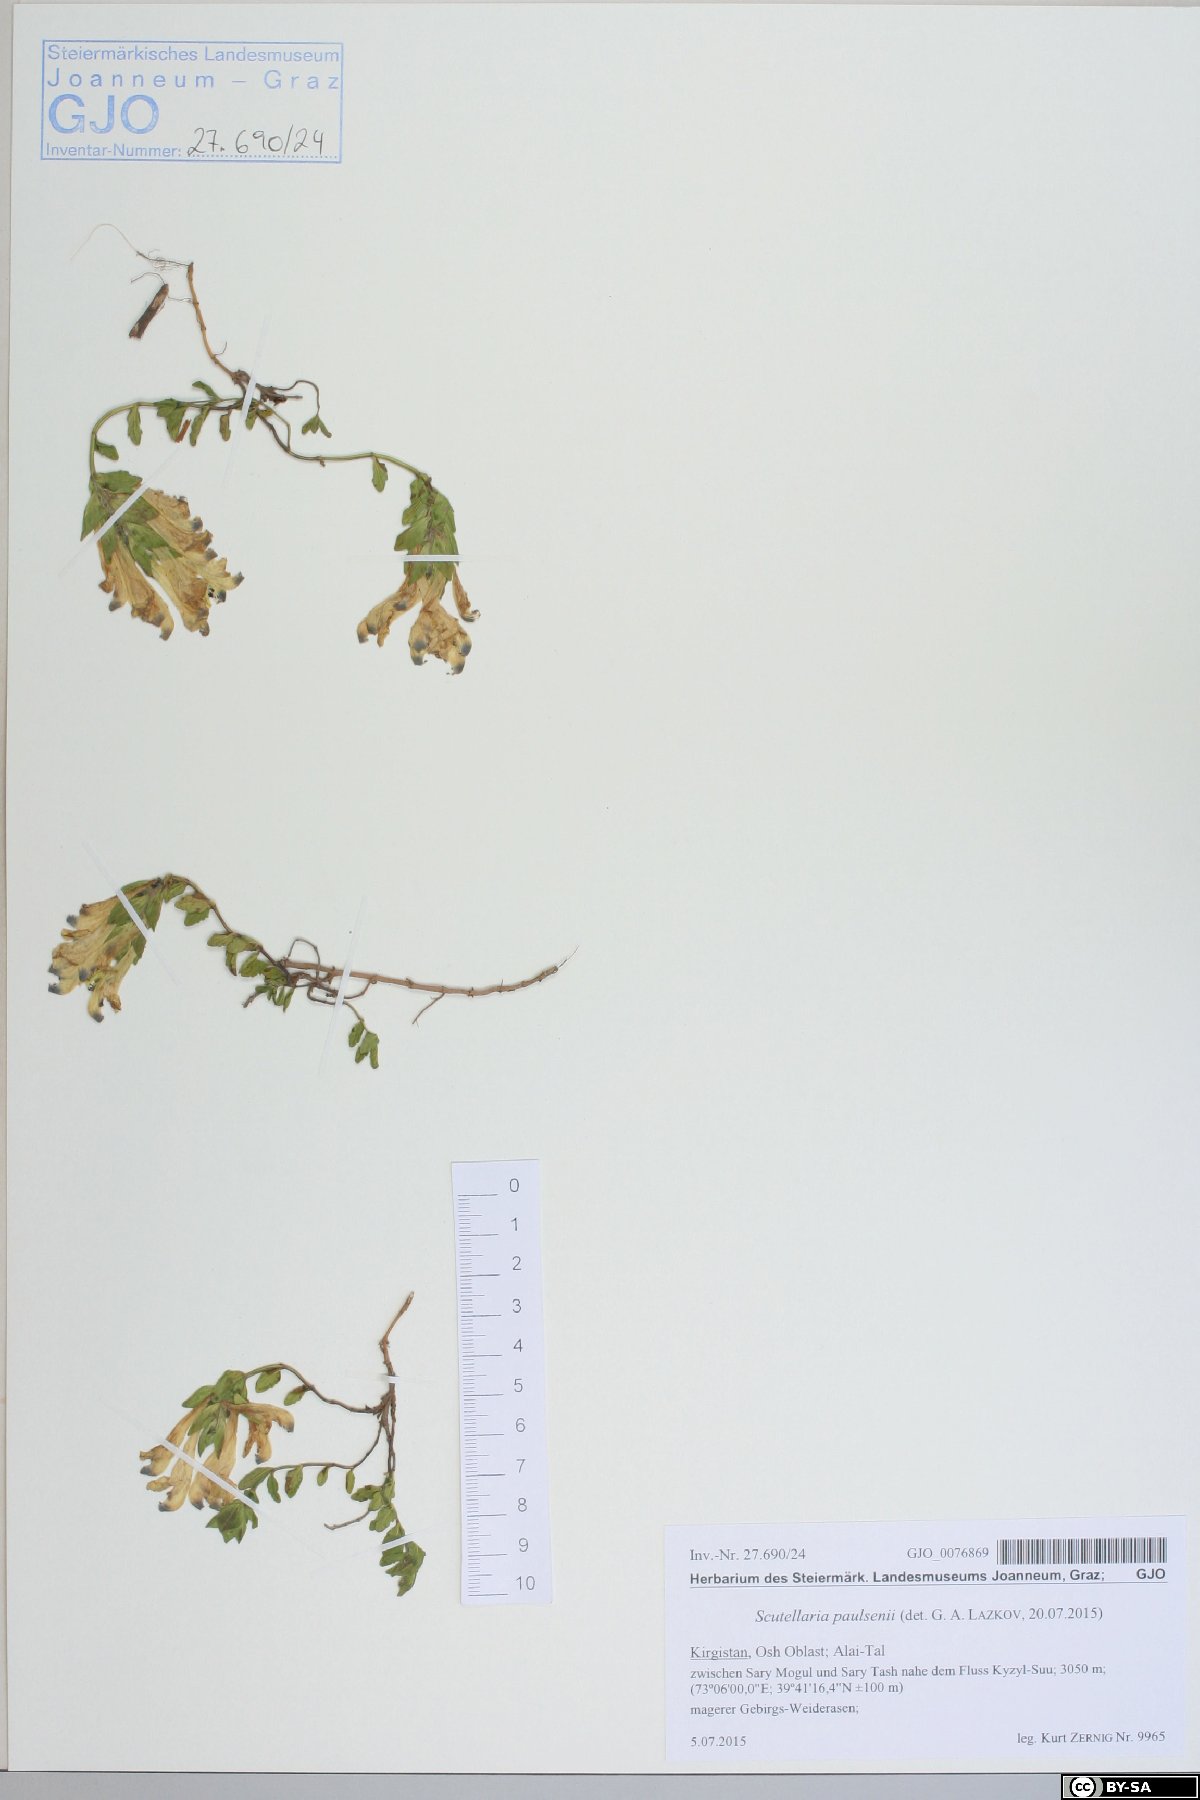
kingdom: Plantae
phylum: Tracheophyta
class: Magnoliopsida
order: Lamiales
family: Lamiaceae
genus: Scutellaria
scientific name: Scutellaria paulsenii
